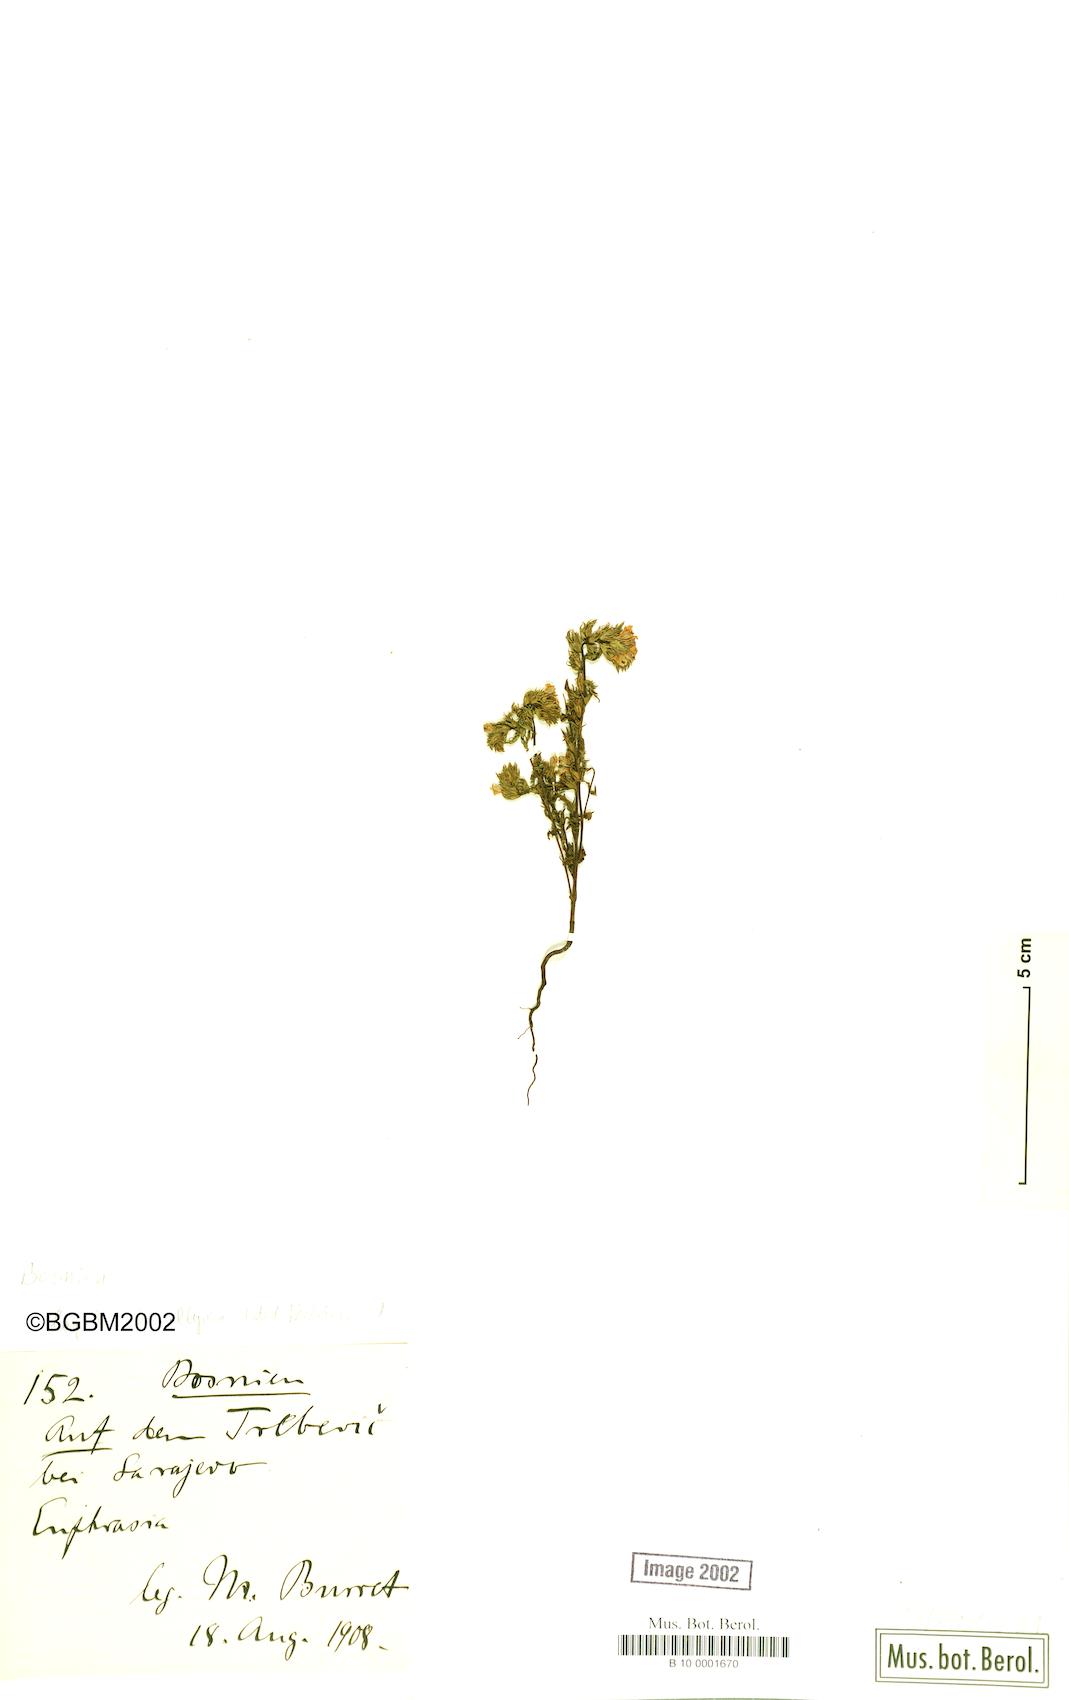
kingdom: Plantae
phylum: Tracheophyta
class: Magnoliopsida
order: Lamiales
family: Orobanchaceae
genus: Euphrasia
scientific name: Euphrasia illyrica
